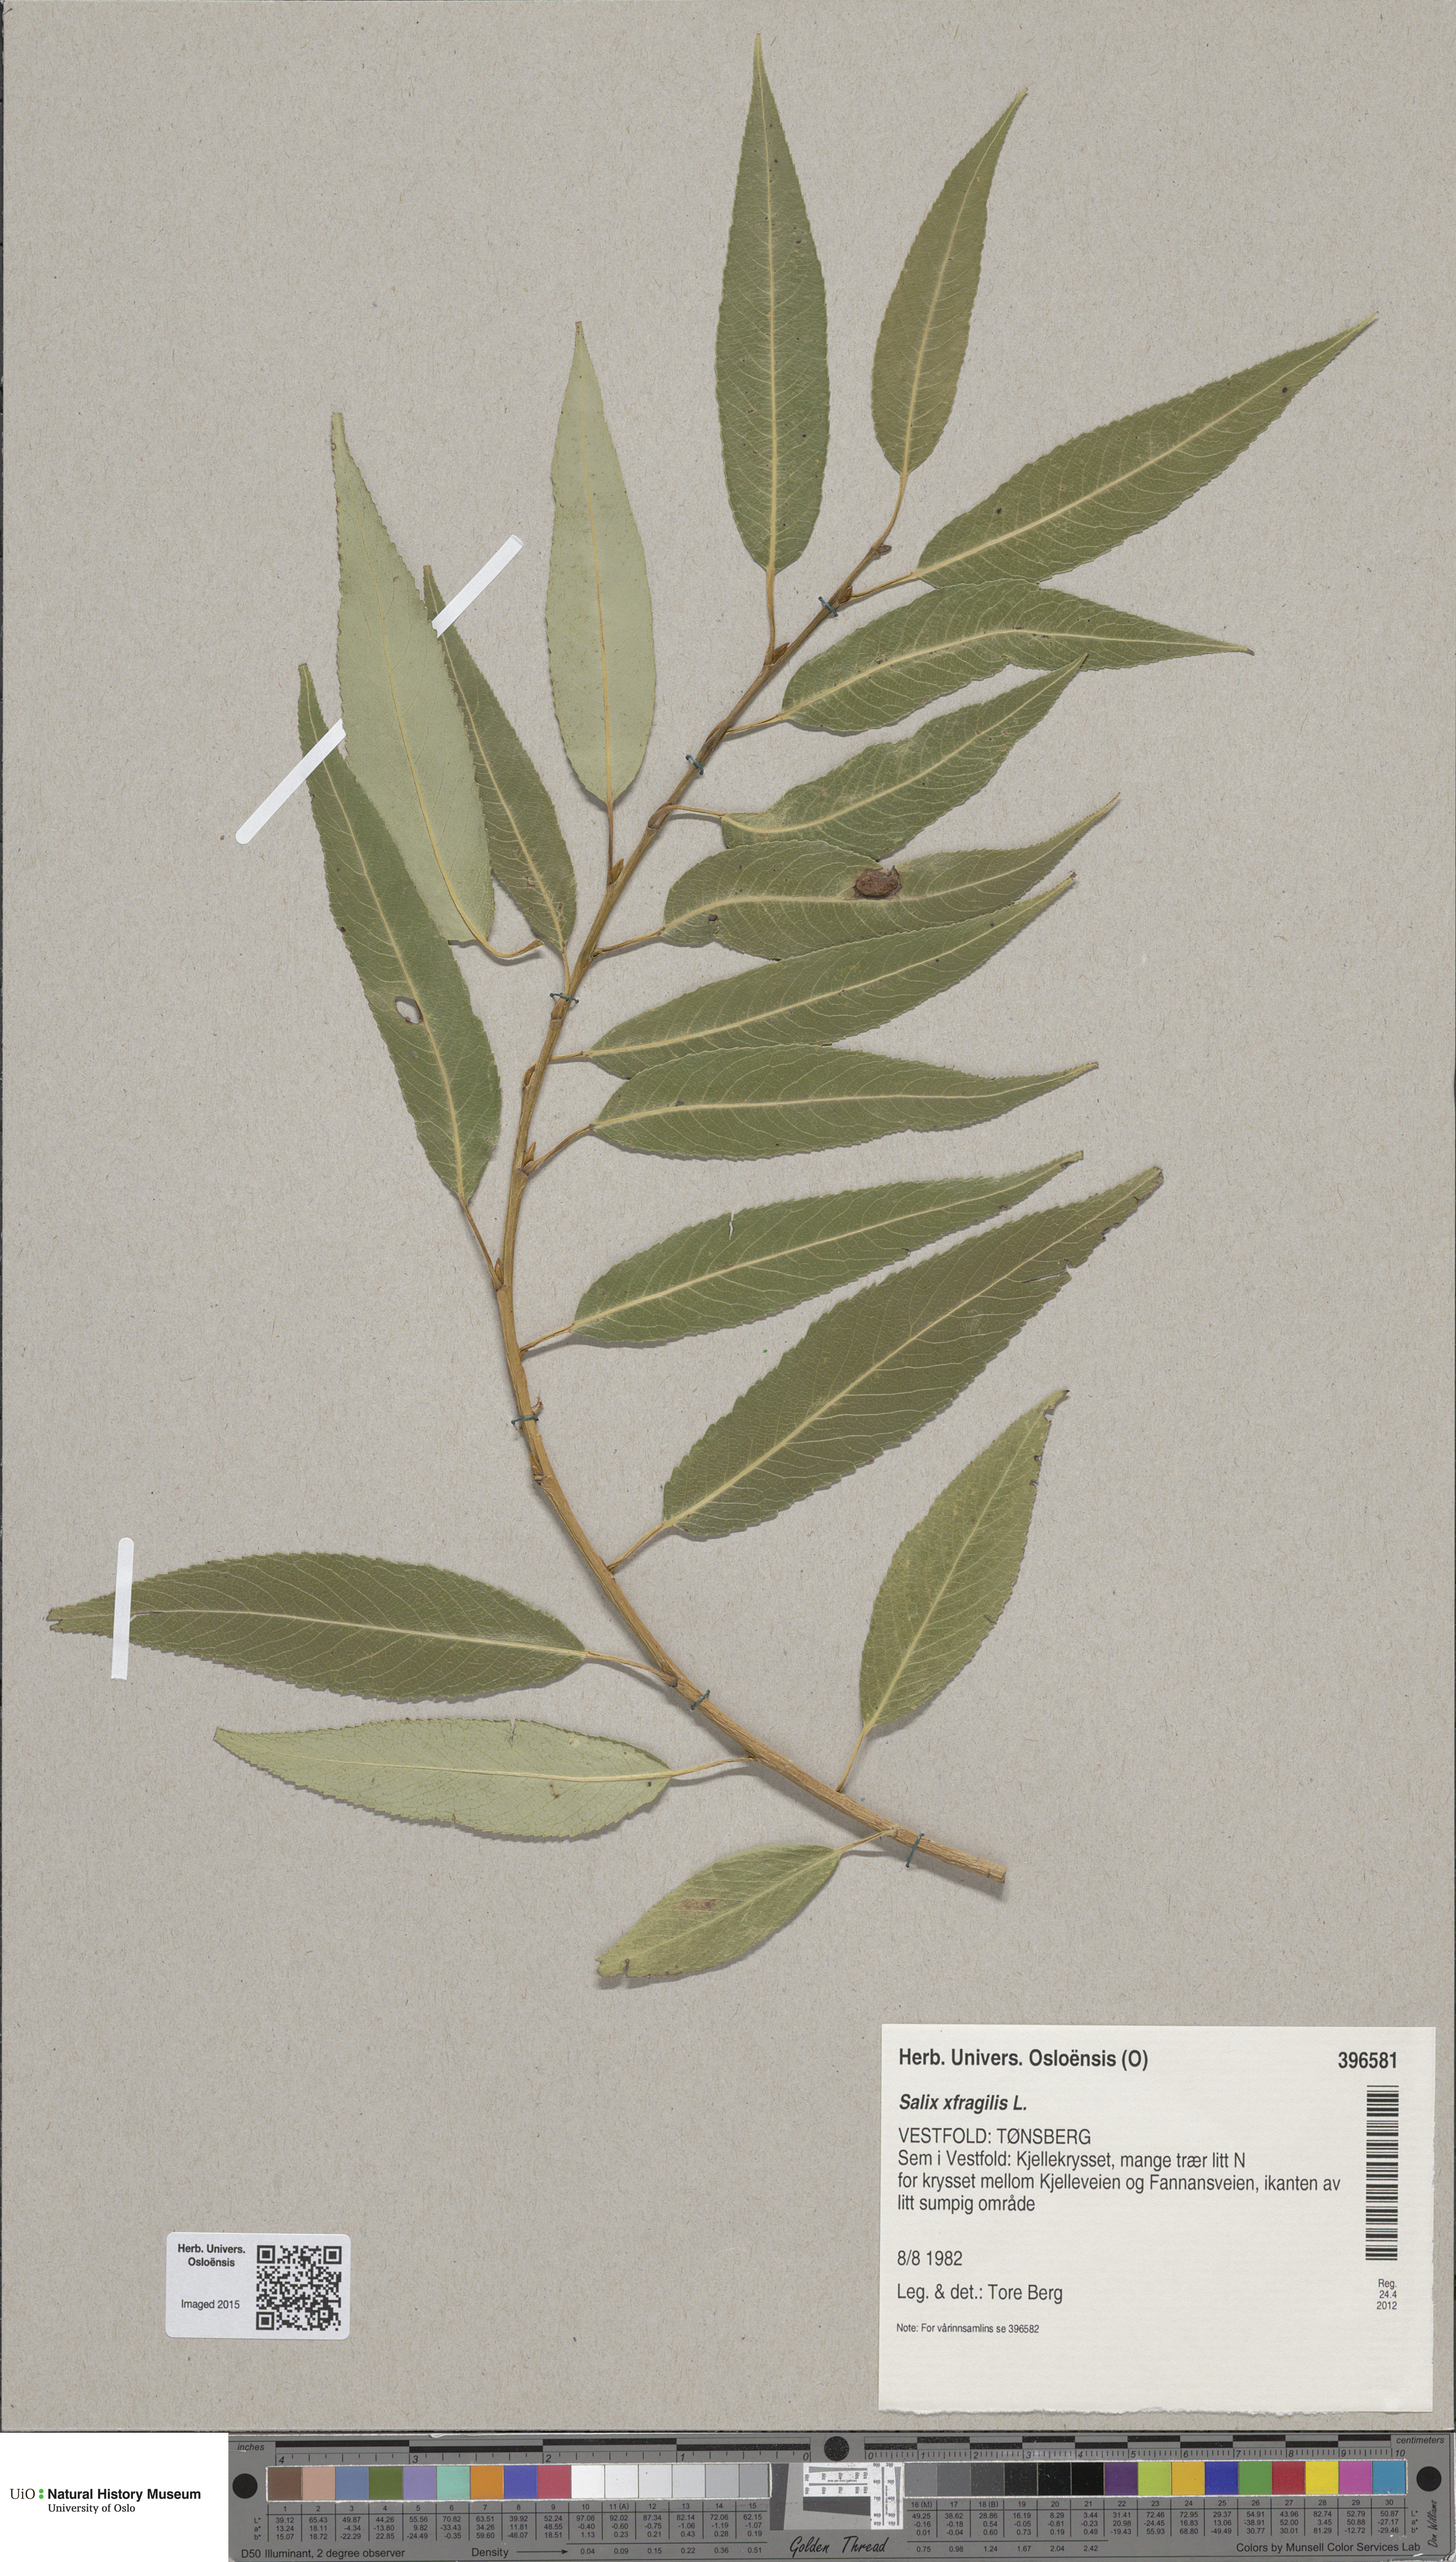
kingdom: Plantae
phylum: Tracheophyta
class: Magnoliopsida
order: Malpighiales
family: Salicaceae
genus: Salix
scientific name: Salix alba
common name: White willow
